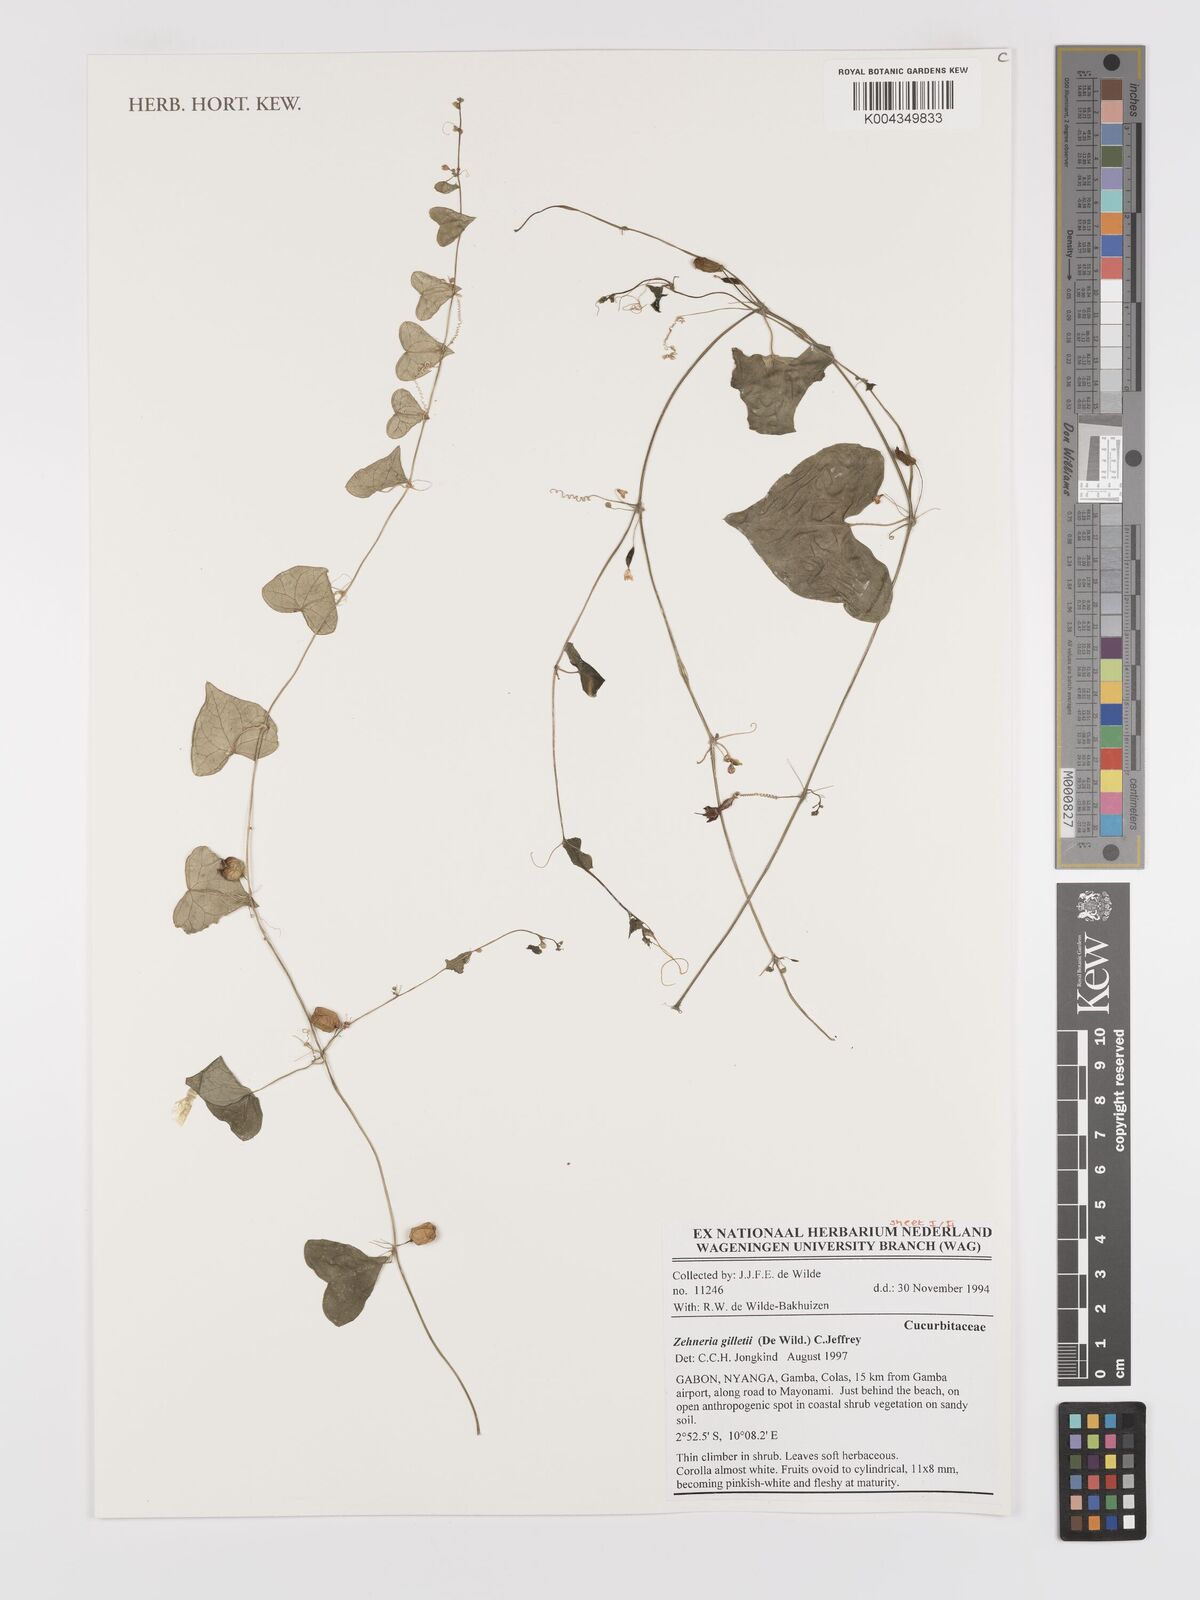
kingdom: Plantae
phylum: Tracheophyta
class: Magnoliopsida
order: Cucurbitales
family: Cucurbitaceae
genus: Zehneria
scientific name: Zehneria gilletii
